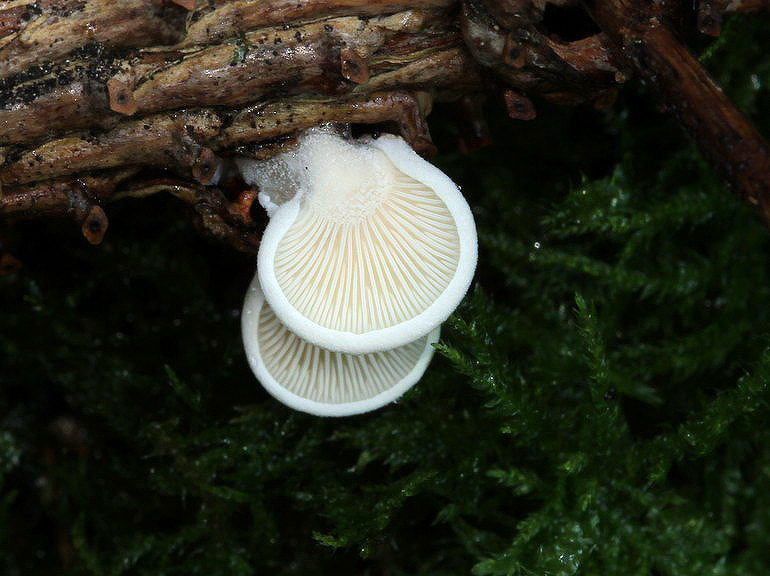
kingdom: Fungi
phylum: Basidiomycota
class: Agaricomycetes
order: Agaricales
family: Mycenaceae
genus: Panellus
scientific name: Panellus mitis
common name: mild epaulethat
